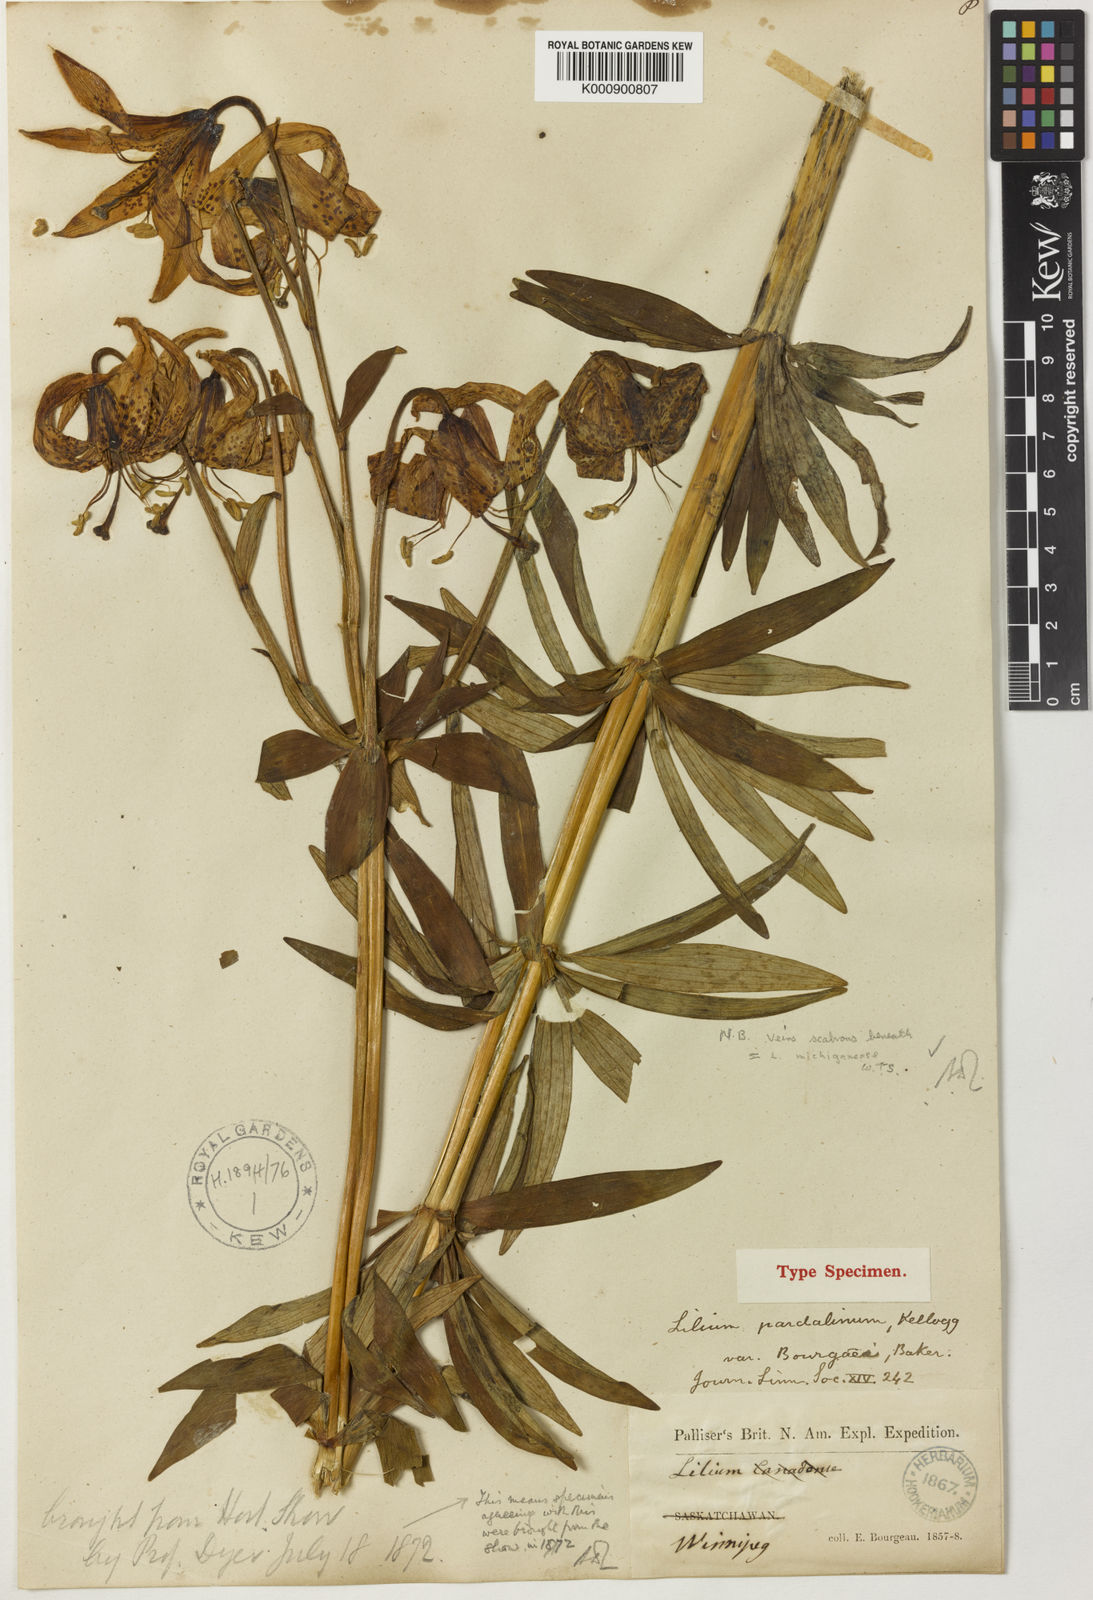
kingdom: Plantae
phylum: Tracheophyta
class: Liliopsida
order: Liliales
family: Liliaceae
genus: Lilium
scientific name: Lilium michiganense
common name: Michigan lily
